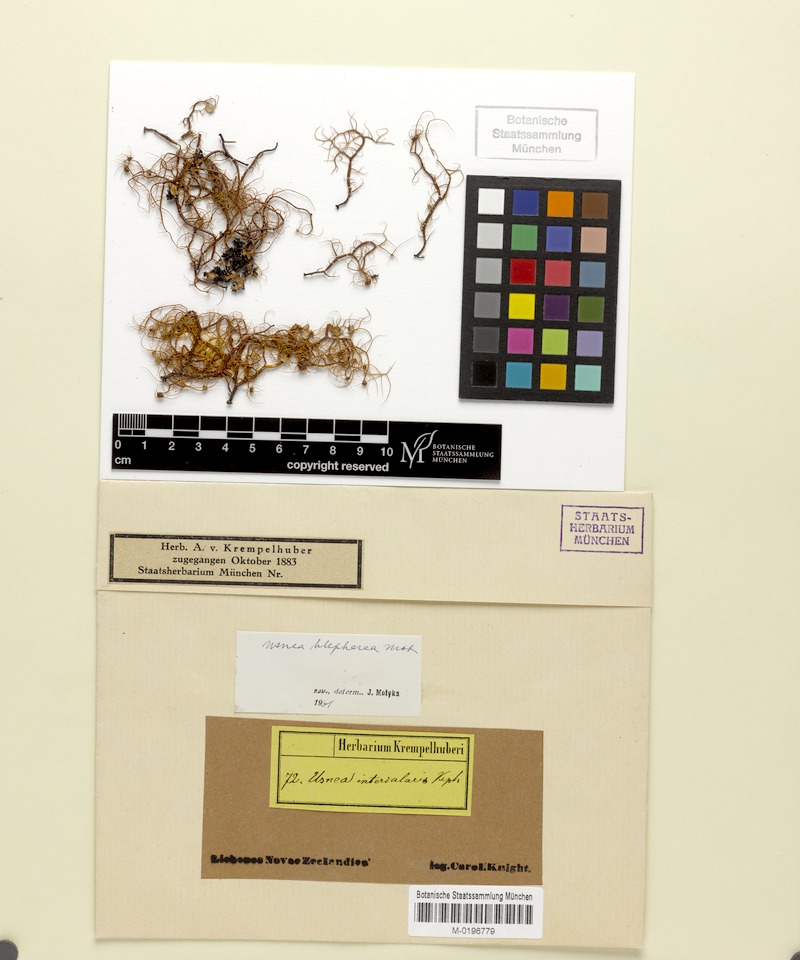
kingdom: Fungi
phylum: Ascomycota
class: Lecanoromycetes
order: Lecanorales
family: Parmeliaceae
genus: Usnea
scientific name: Usnea blepharea
